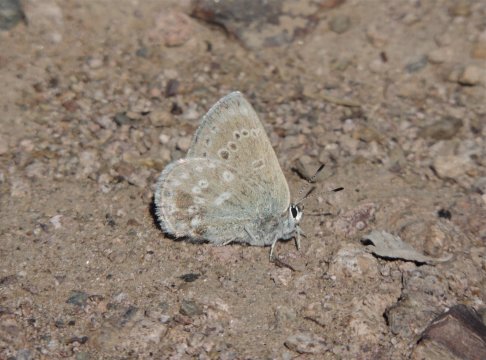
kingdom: Animalia
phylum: Arthropoda
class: Insecta
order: Lepidoptera
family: Lycaenidae
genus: Icaricia
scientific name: Icaricia icarioides
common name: Boisduval's Blue
